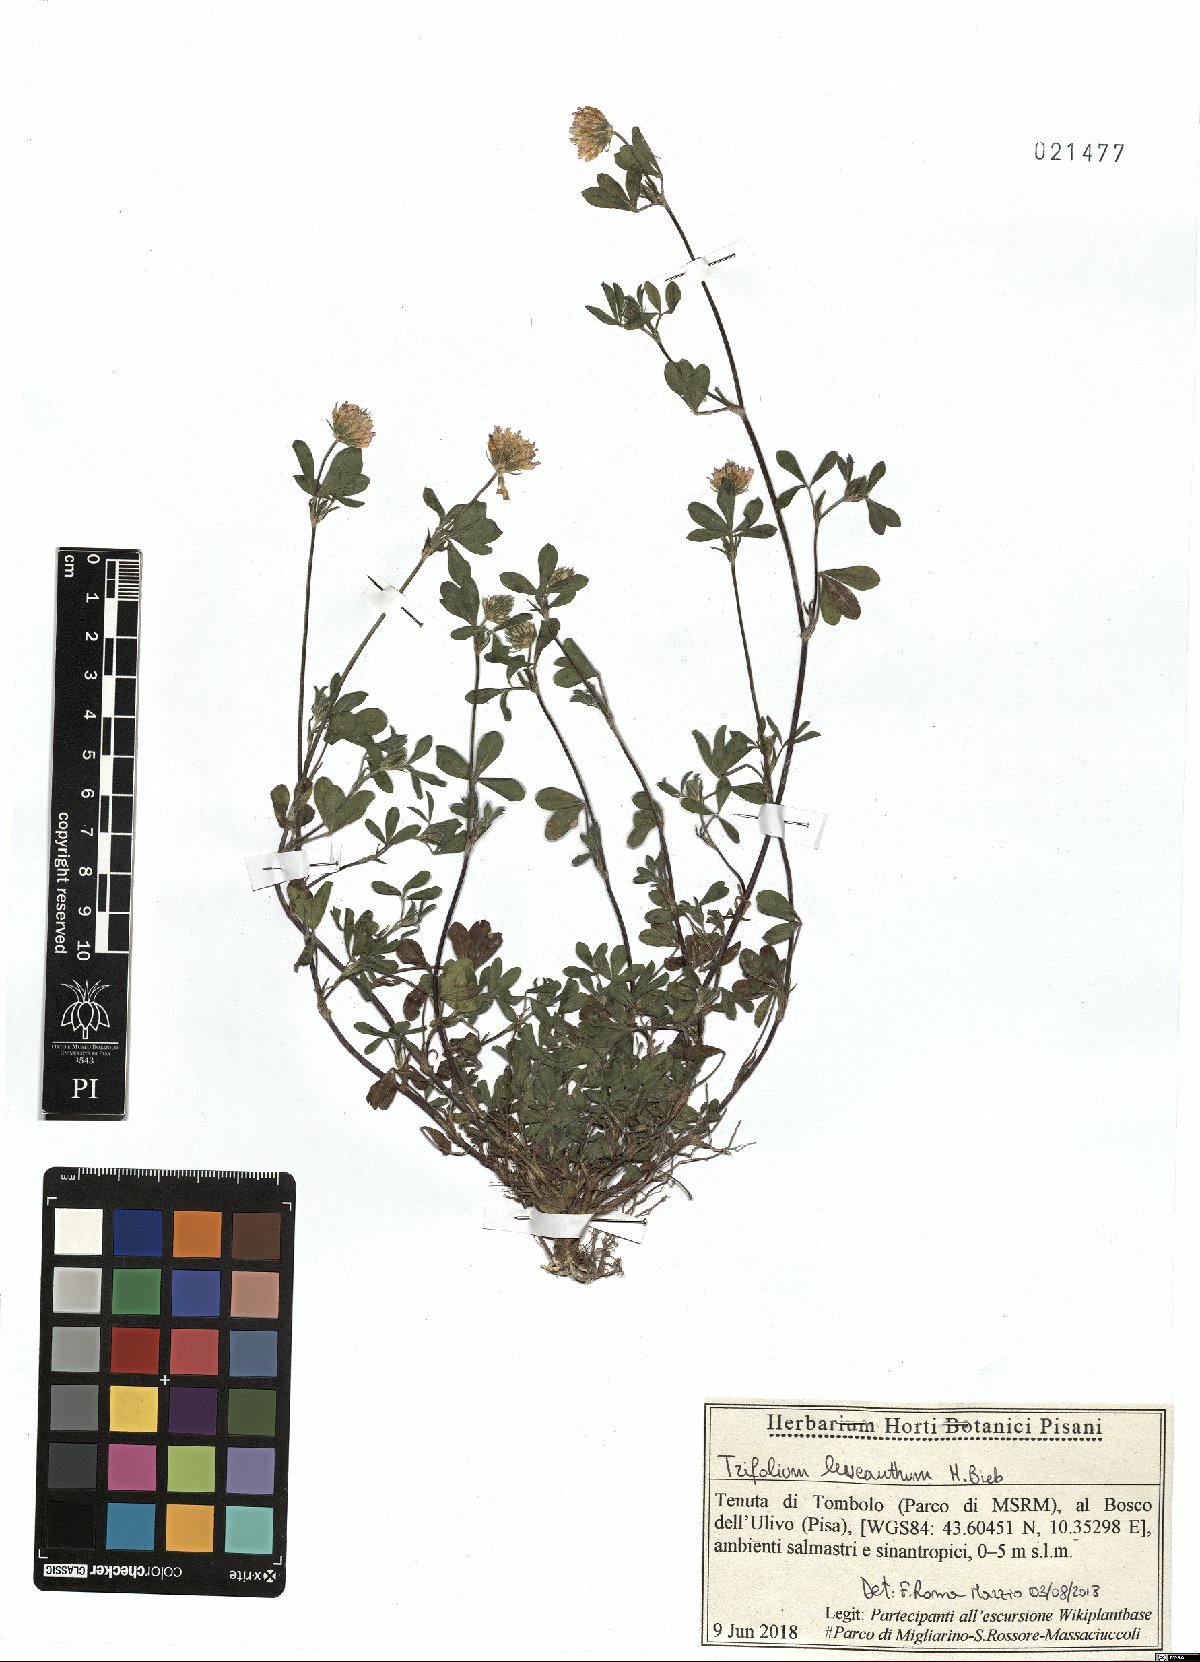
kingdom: Plantae
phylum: Tracheophyta
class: Magnoliopsida
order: Fabales
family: Fabaceae
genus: Trifolium
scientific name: Trifolium leucanthum
